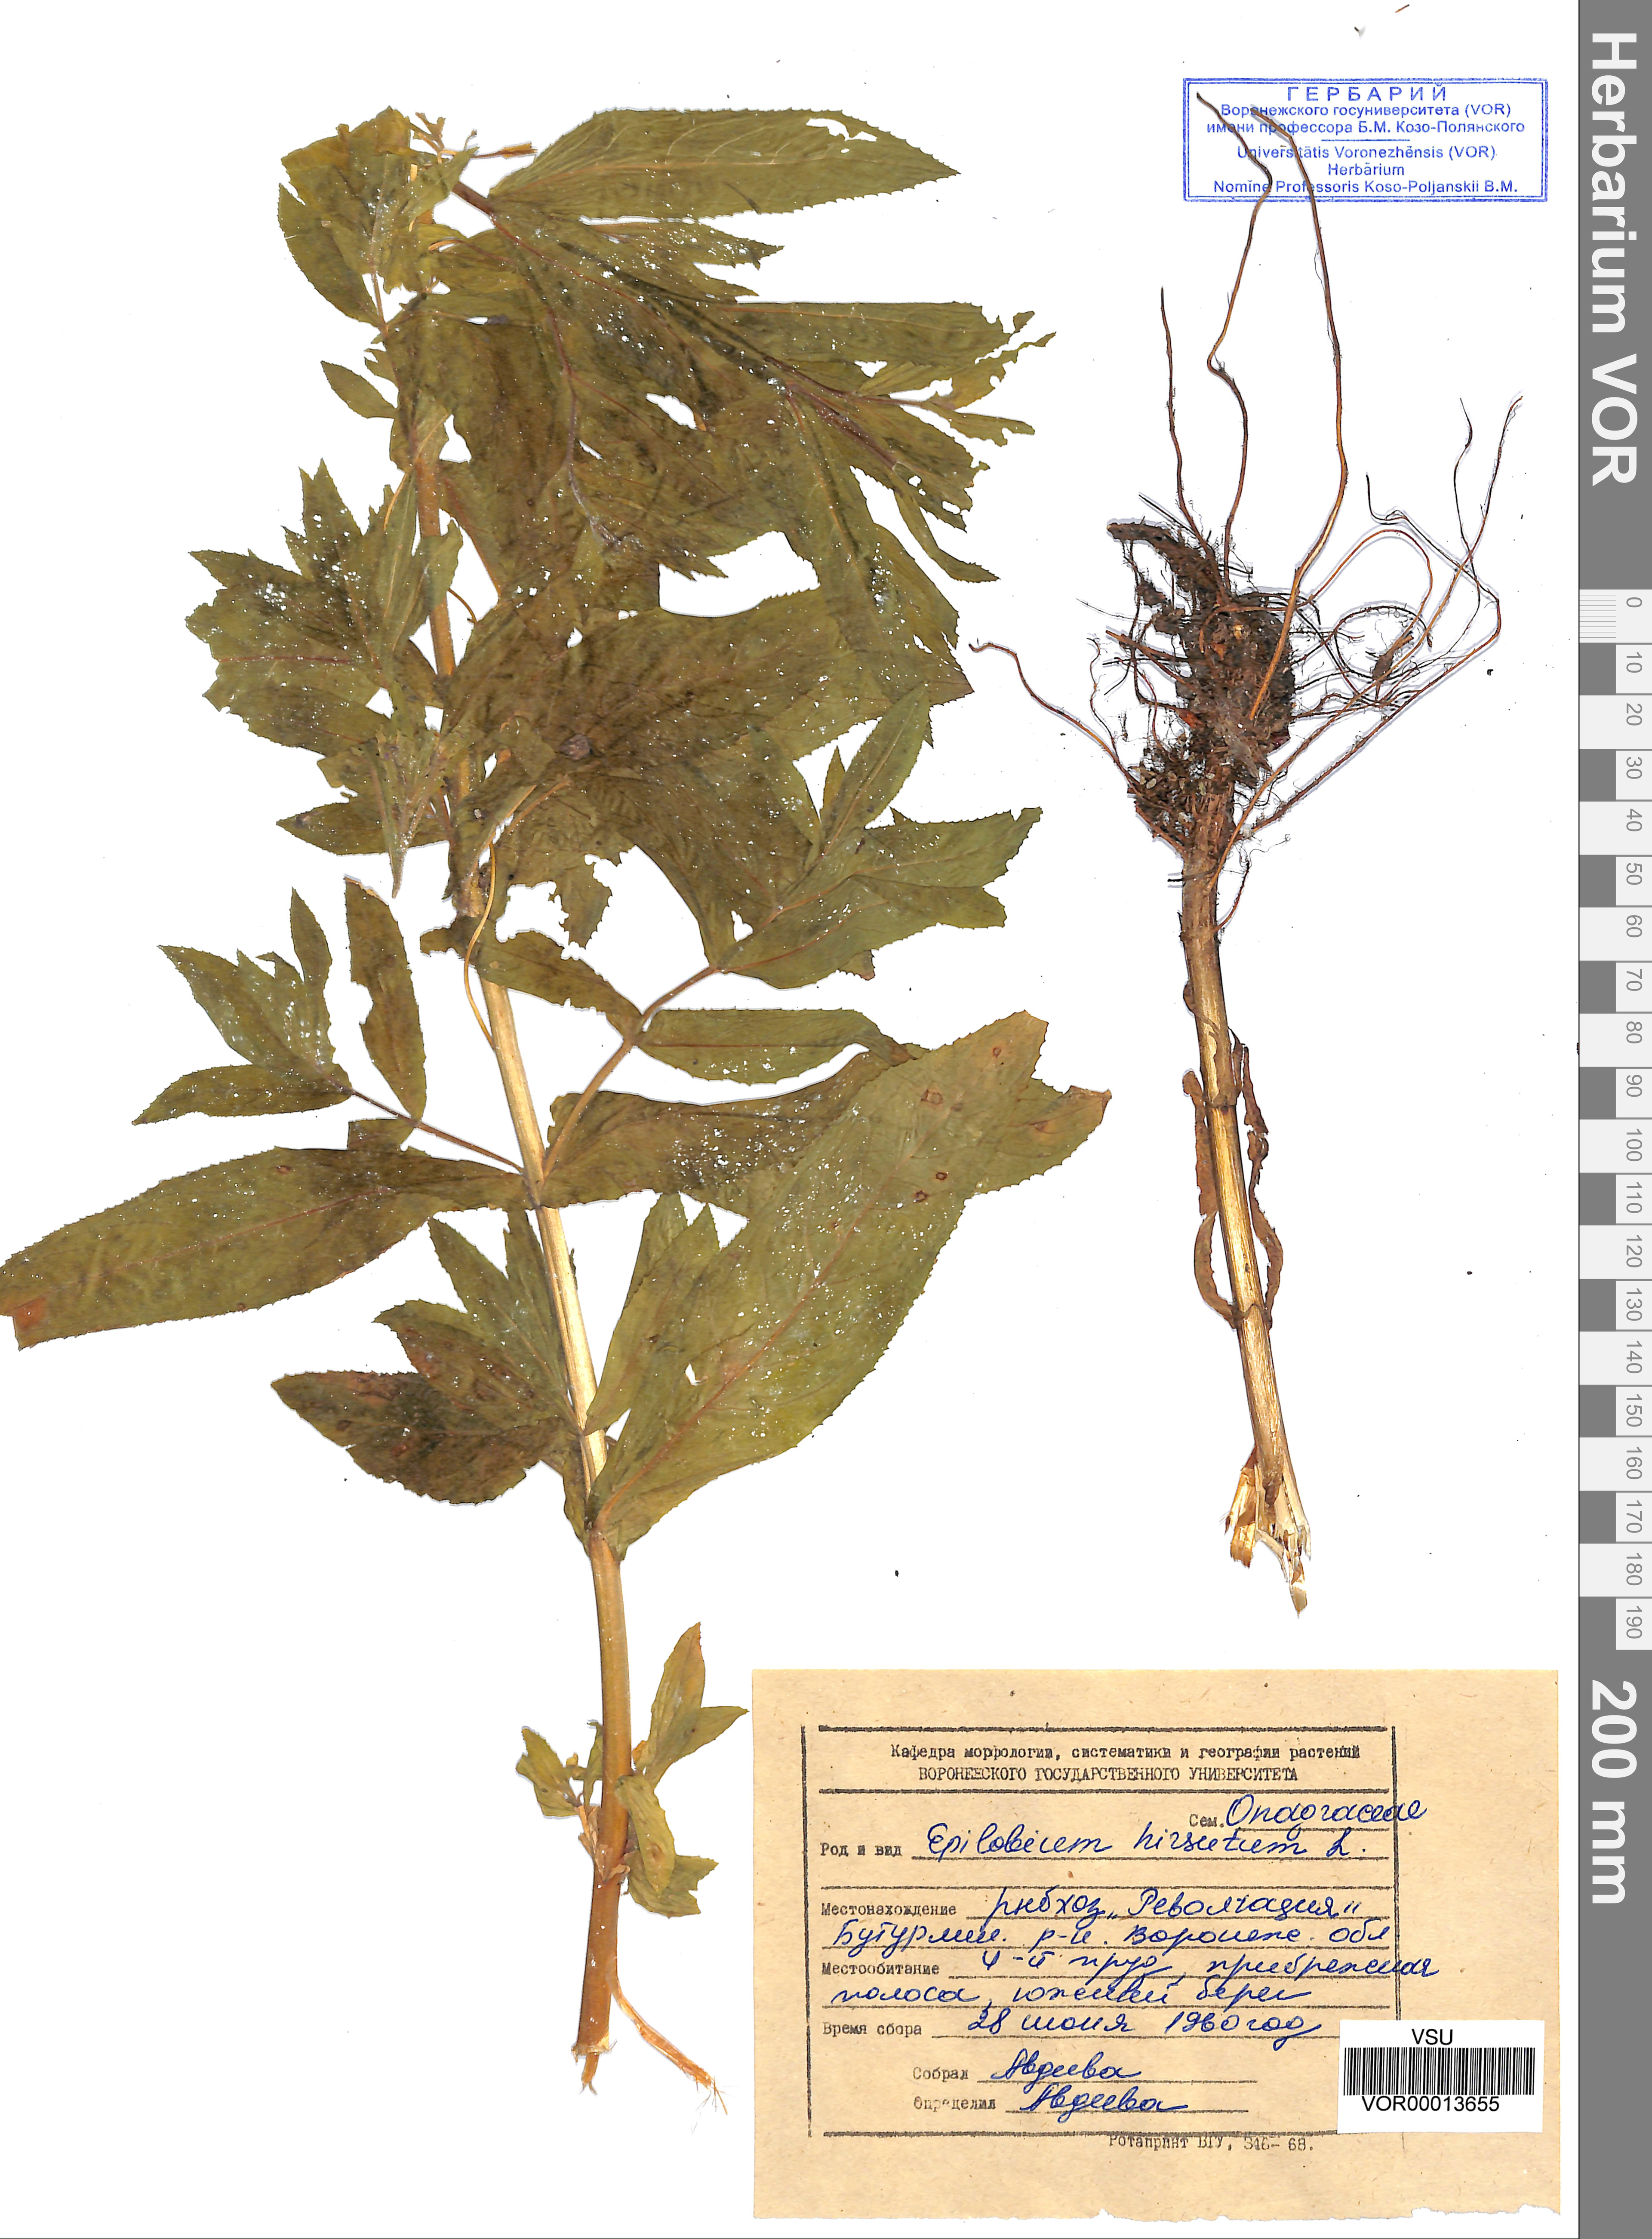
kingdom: Plantae
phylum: Tracheophyta
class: Magnoliopsida
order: Myrtales
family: Onagraceae
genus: Epilobium
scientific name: Epilobium hirsutum
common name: Great willowherb
